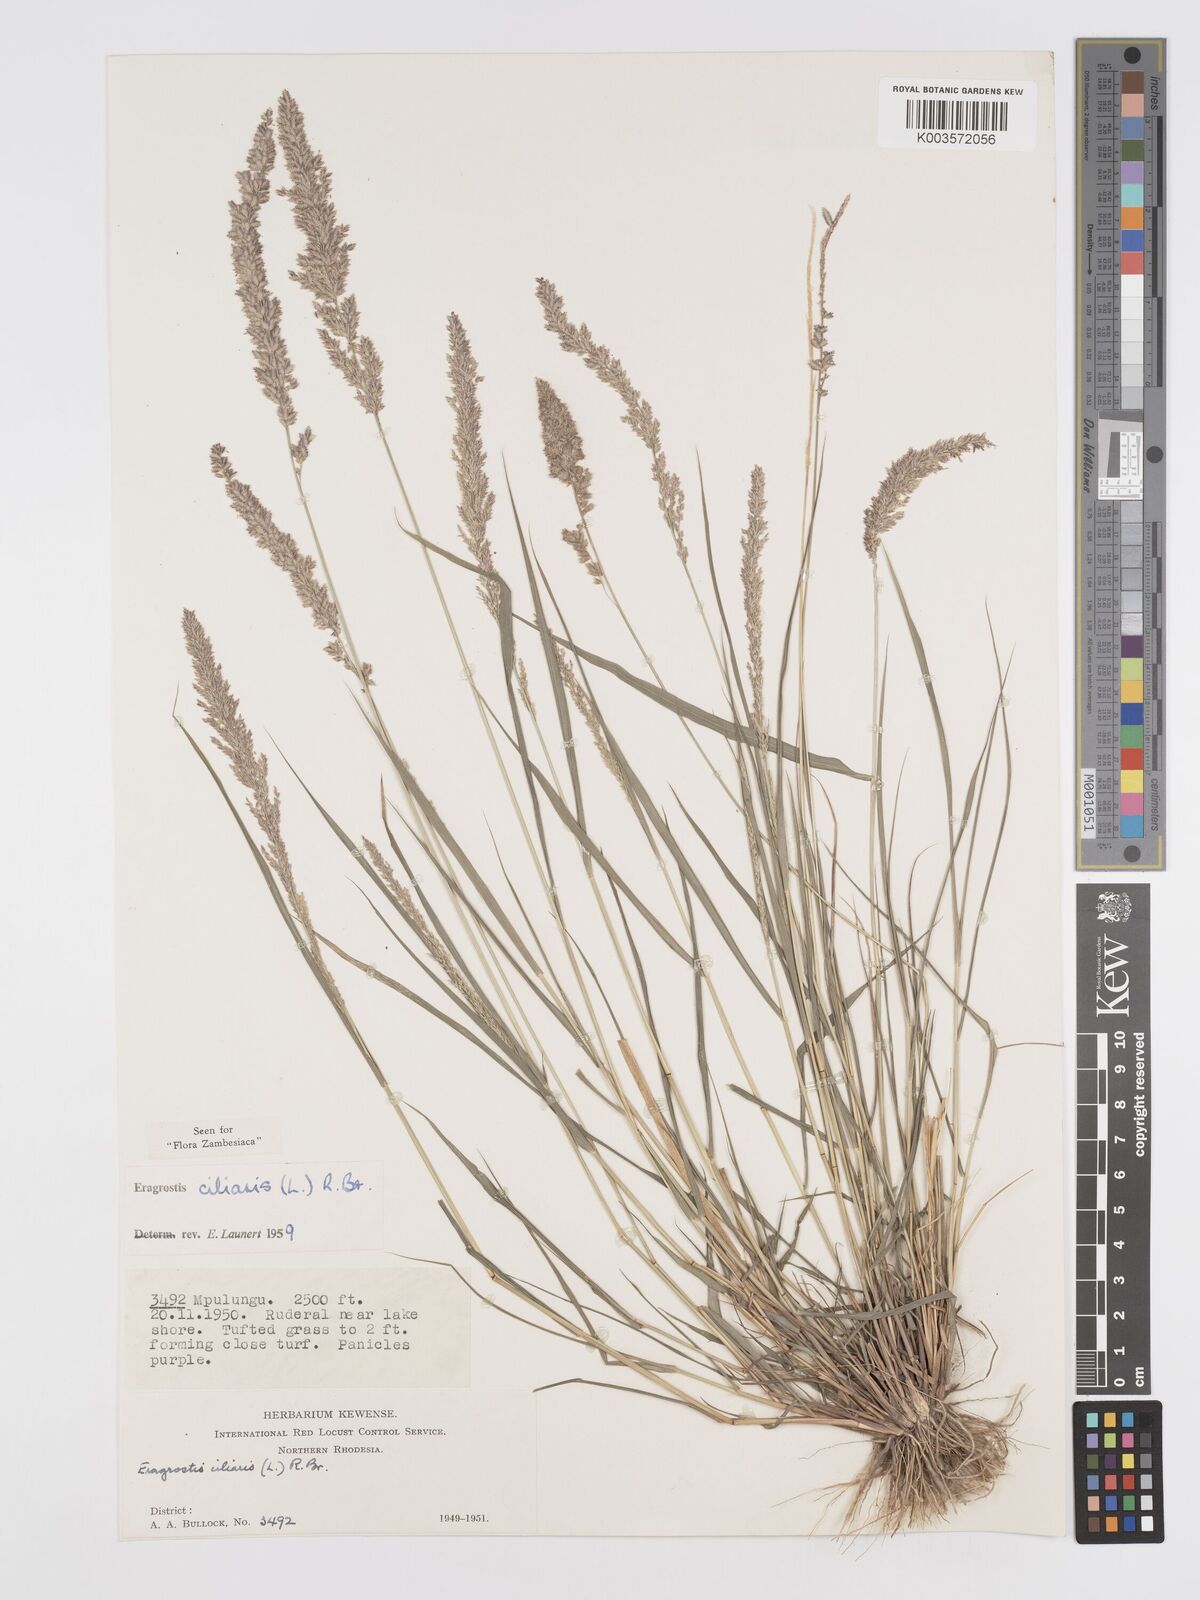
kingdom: Plantae
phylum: Tracheophyta
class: Liliopsida
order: Poales
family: Poaceae
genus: Eragrostis
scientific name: Eragrostis ciliaris
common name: Gophertail lovegrass
